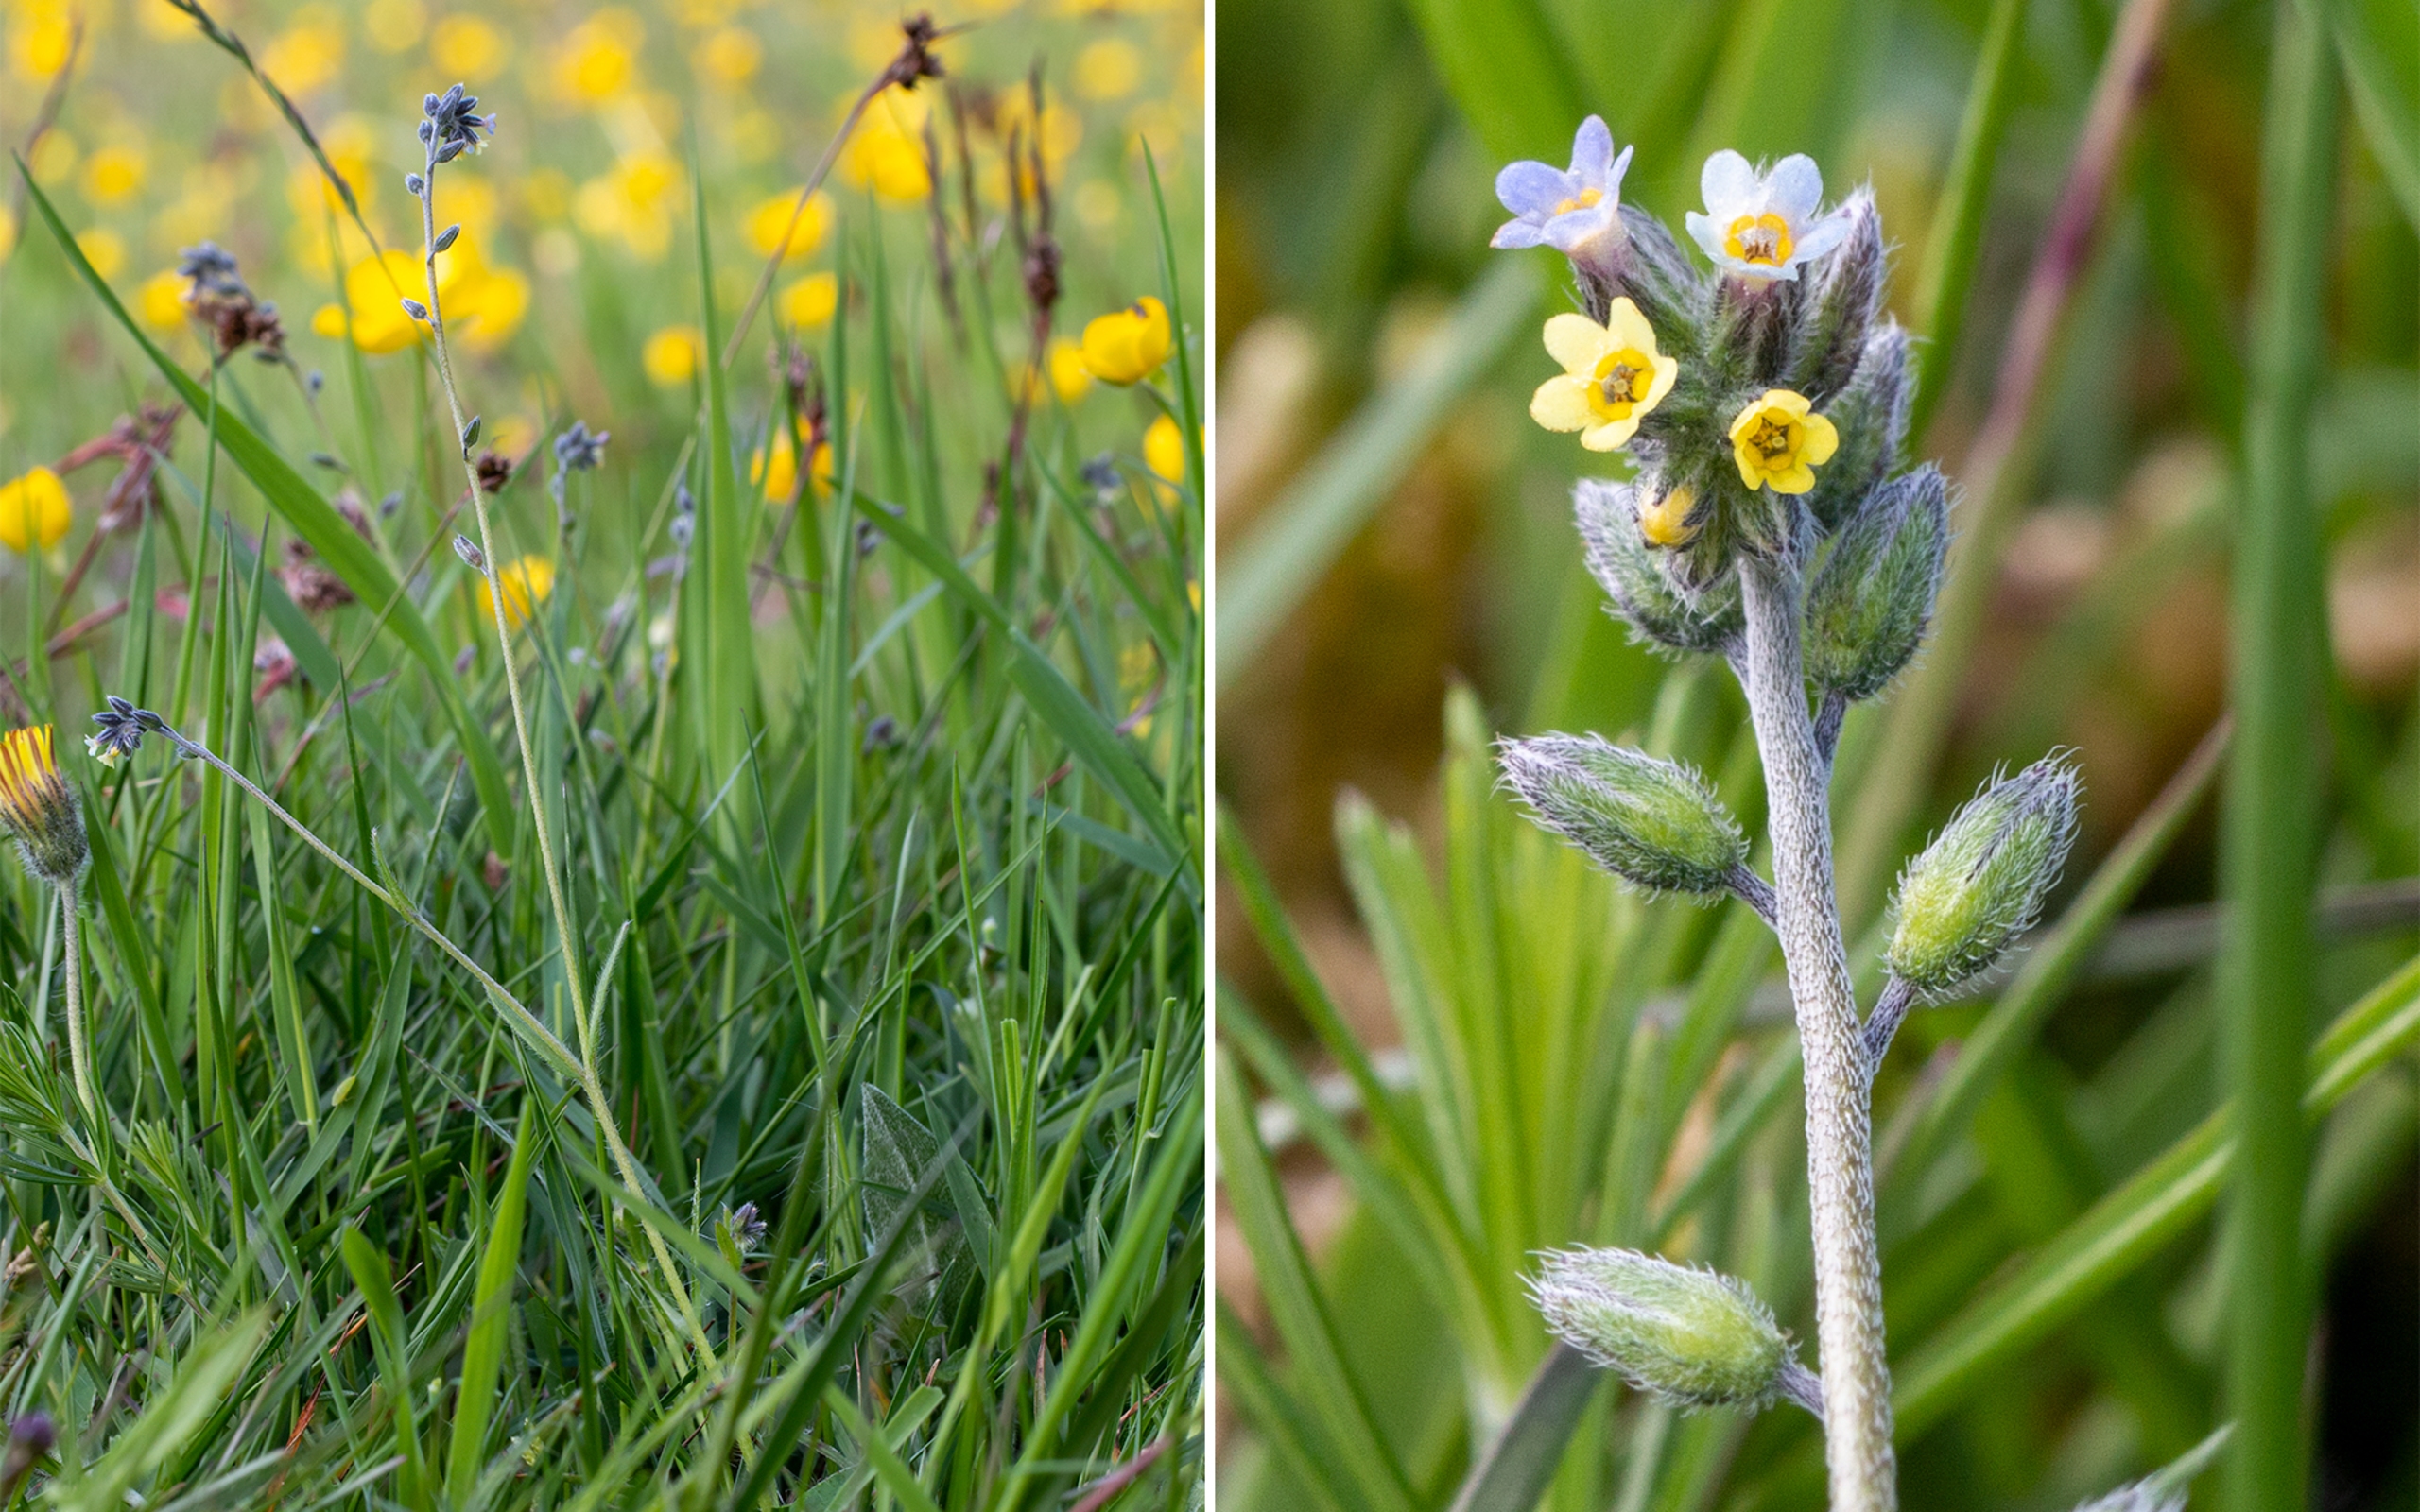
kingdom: Plantae
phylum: Tracheophyta
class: Magnoliopsida
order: Boraginales
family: Boraginaceae
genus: Myosotis
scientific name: Myosotis discolor
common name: Forskelligfarvet forglemmigej
